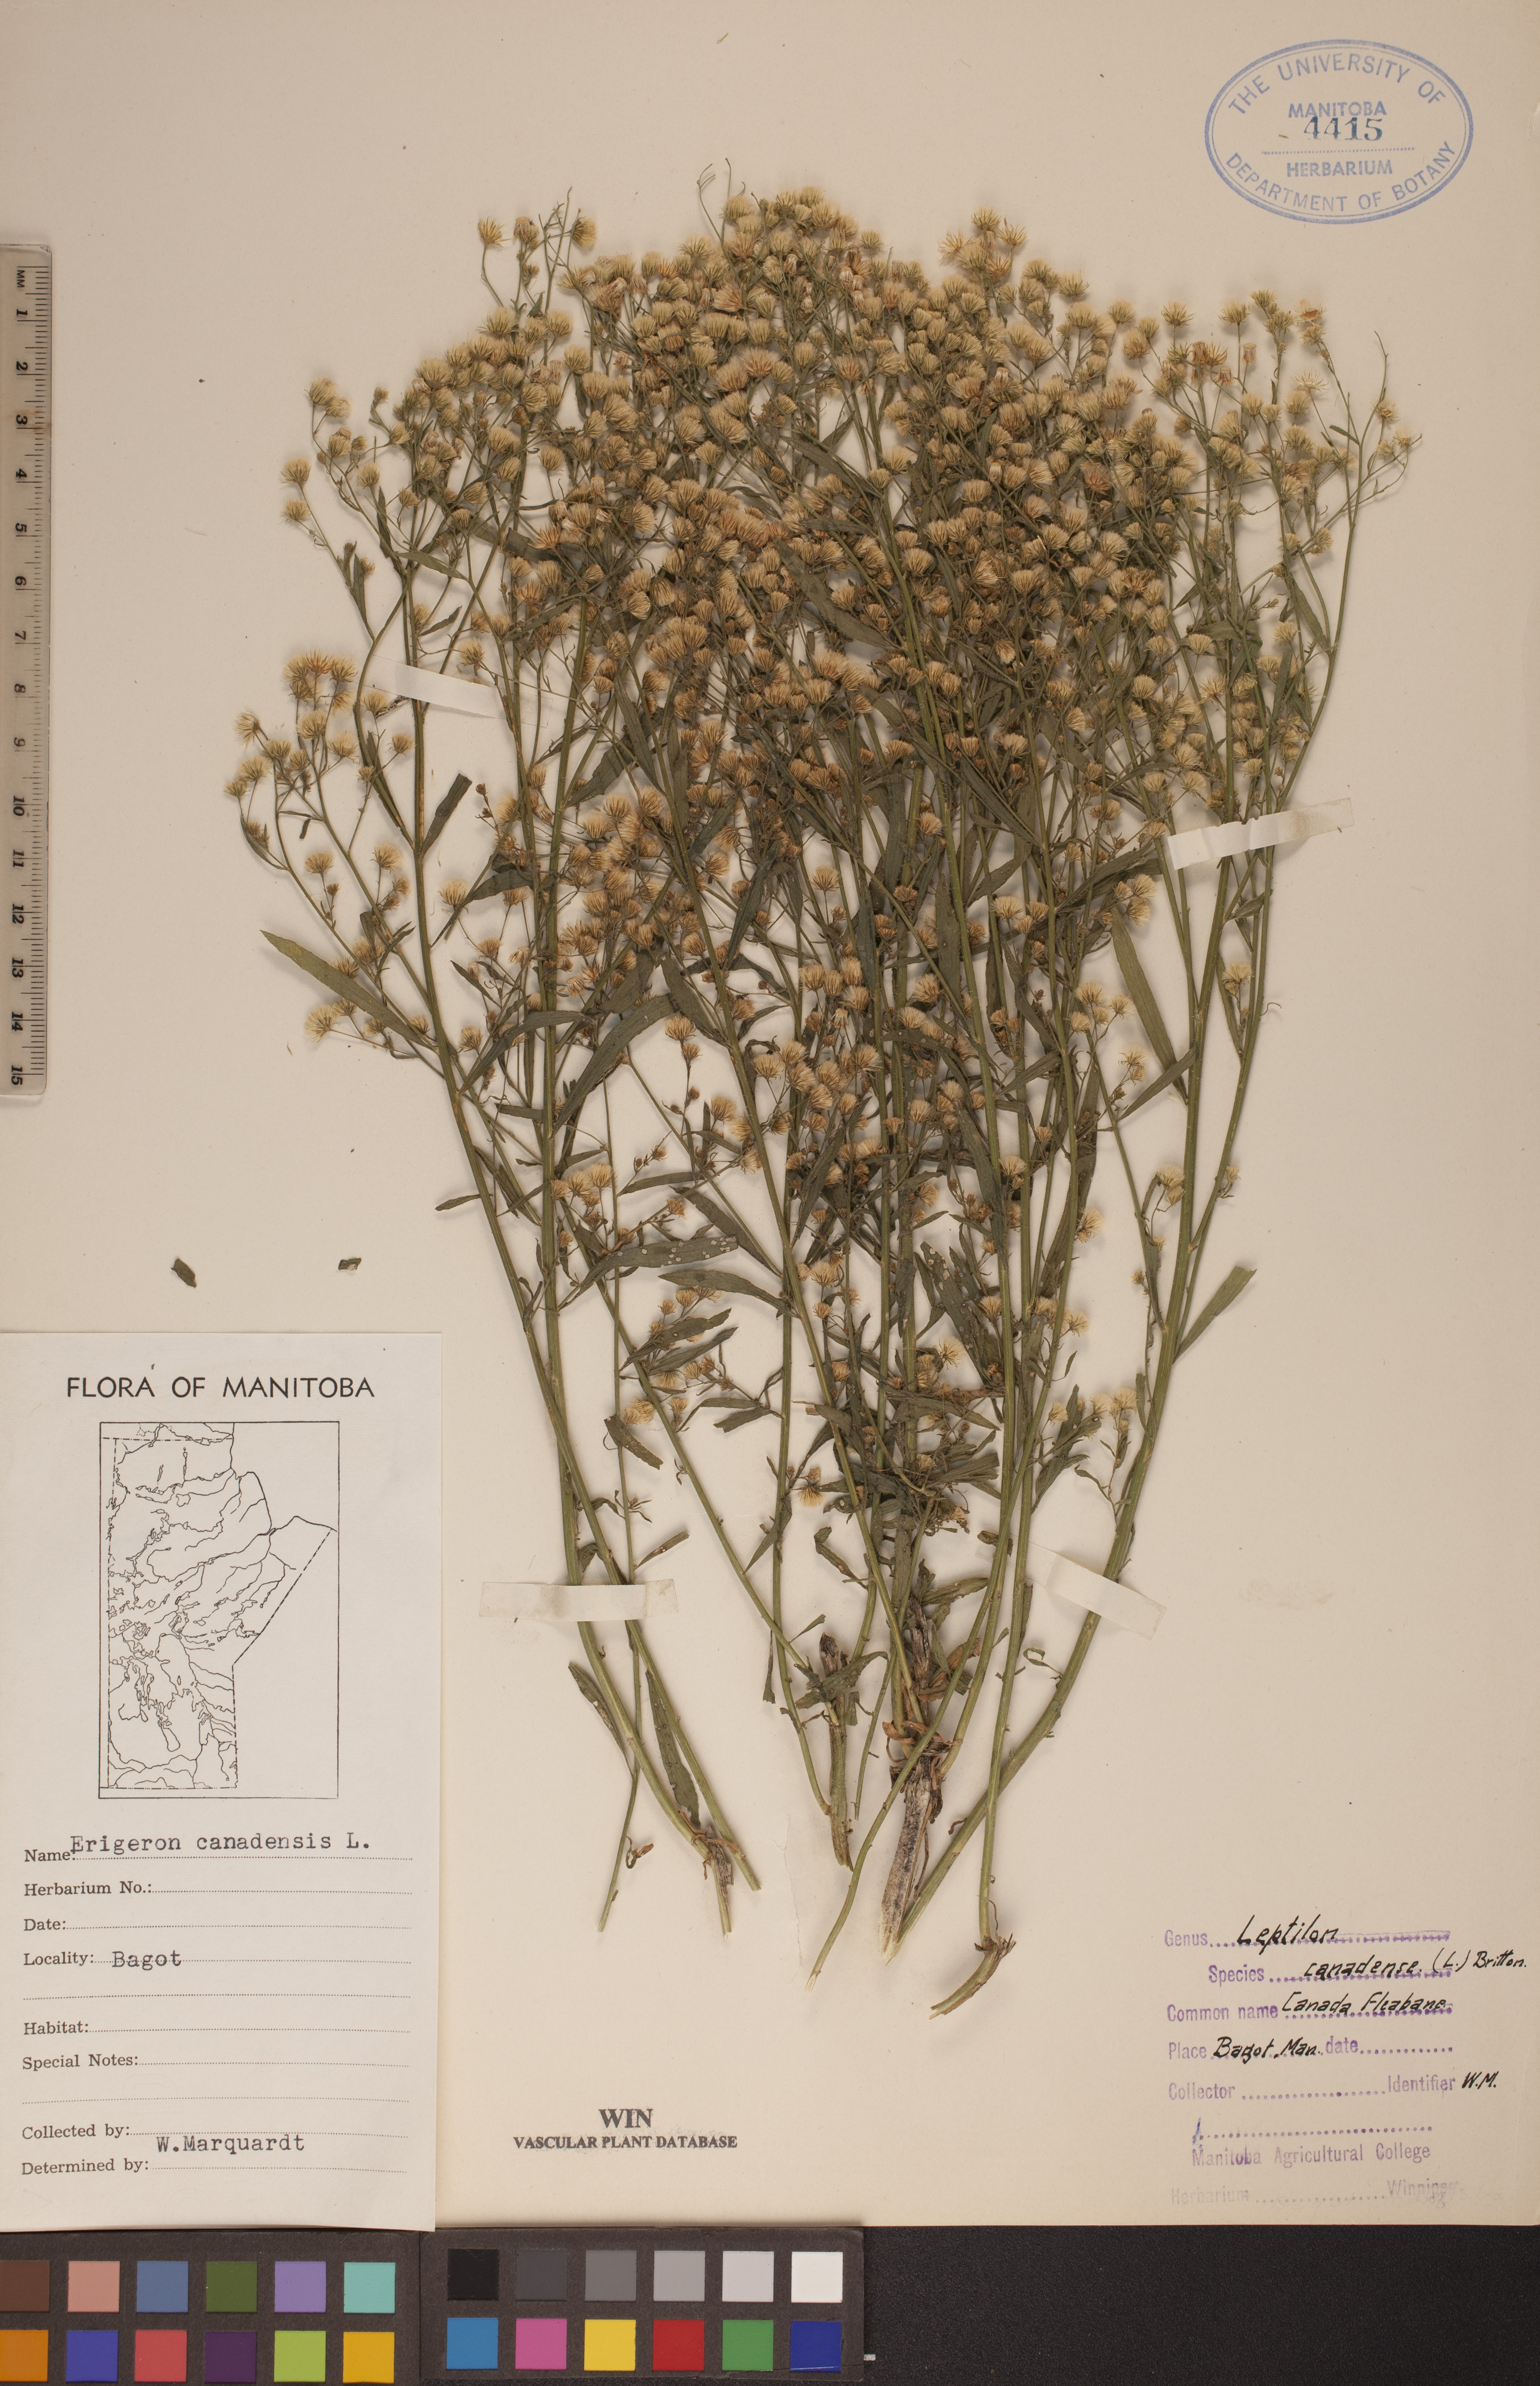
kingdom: Plantae
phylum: Tracheophyta
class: Magnoliopsida
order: Asterales
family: Asteraceae
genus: Erigeron
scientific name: Erigeron canadensis
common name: Canadian fleabane
